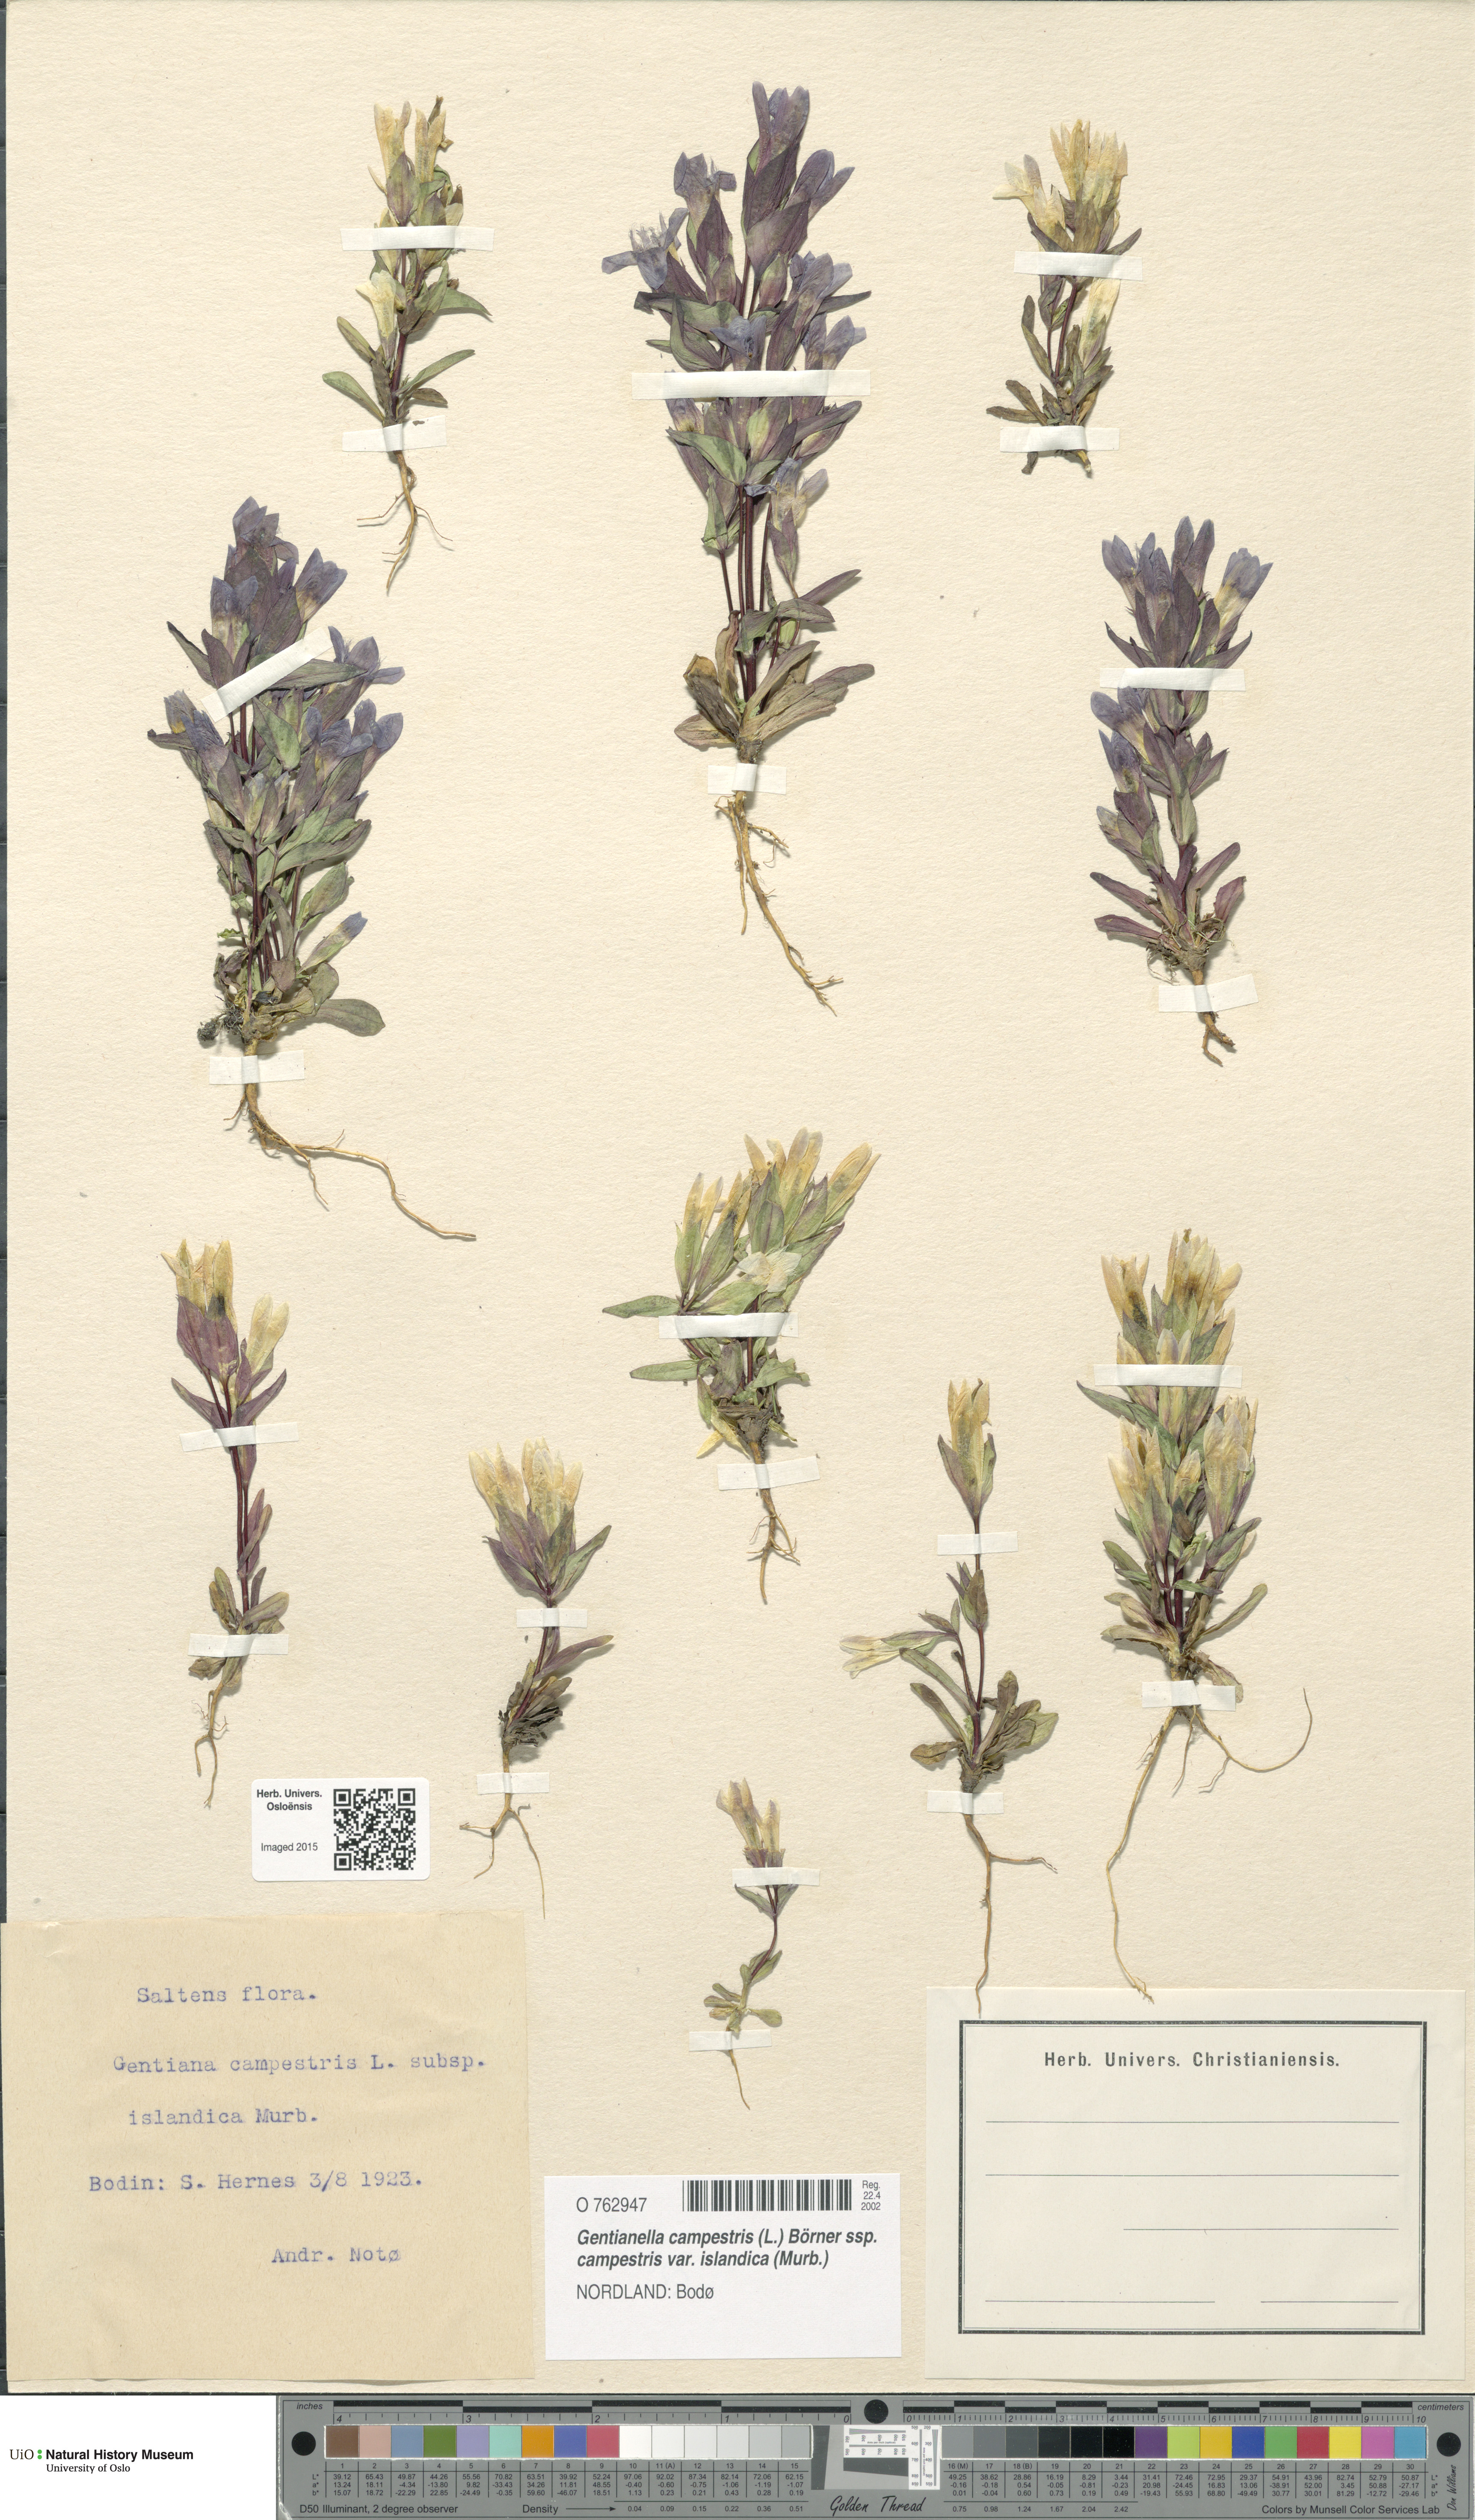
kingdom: Plantae
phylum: Tracheophyta
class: Magnoliopsida
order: Gentianales
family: Gentianaceae
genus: Gentianella
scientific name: Gentianella campestris
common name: Field gentian
